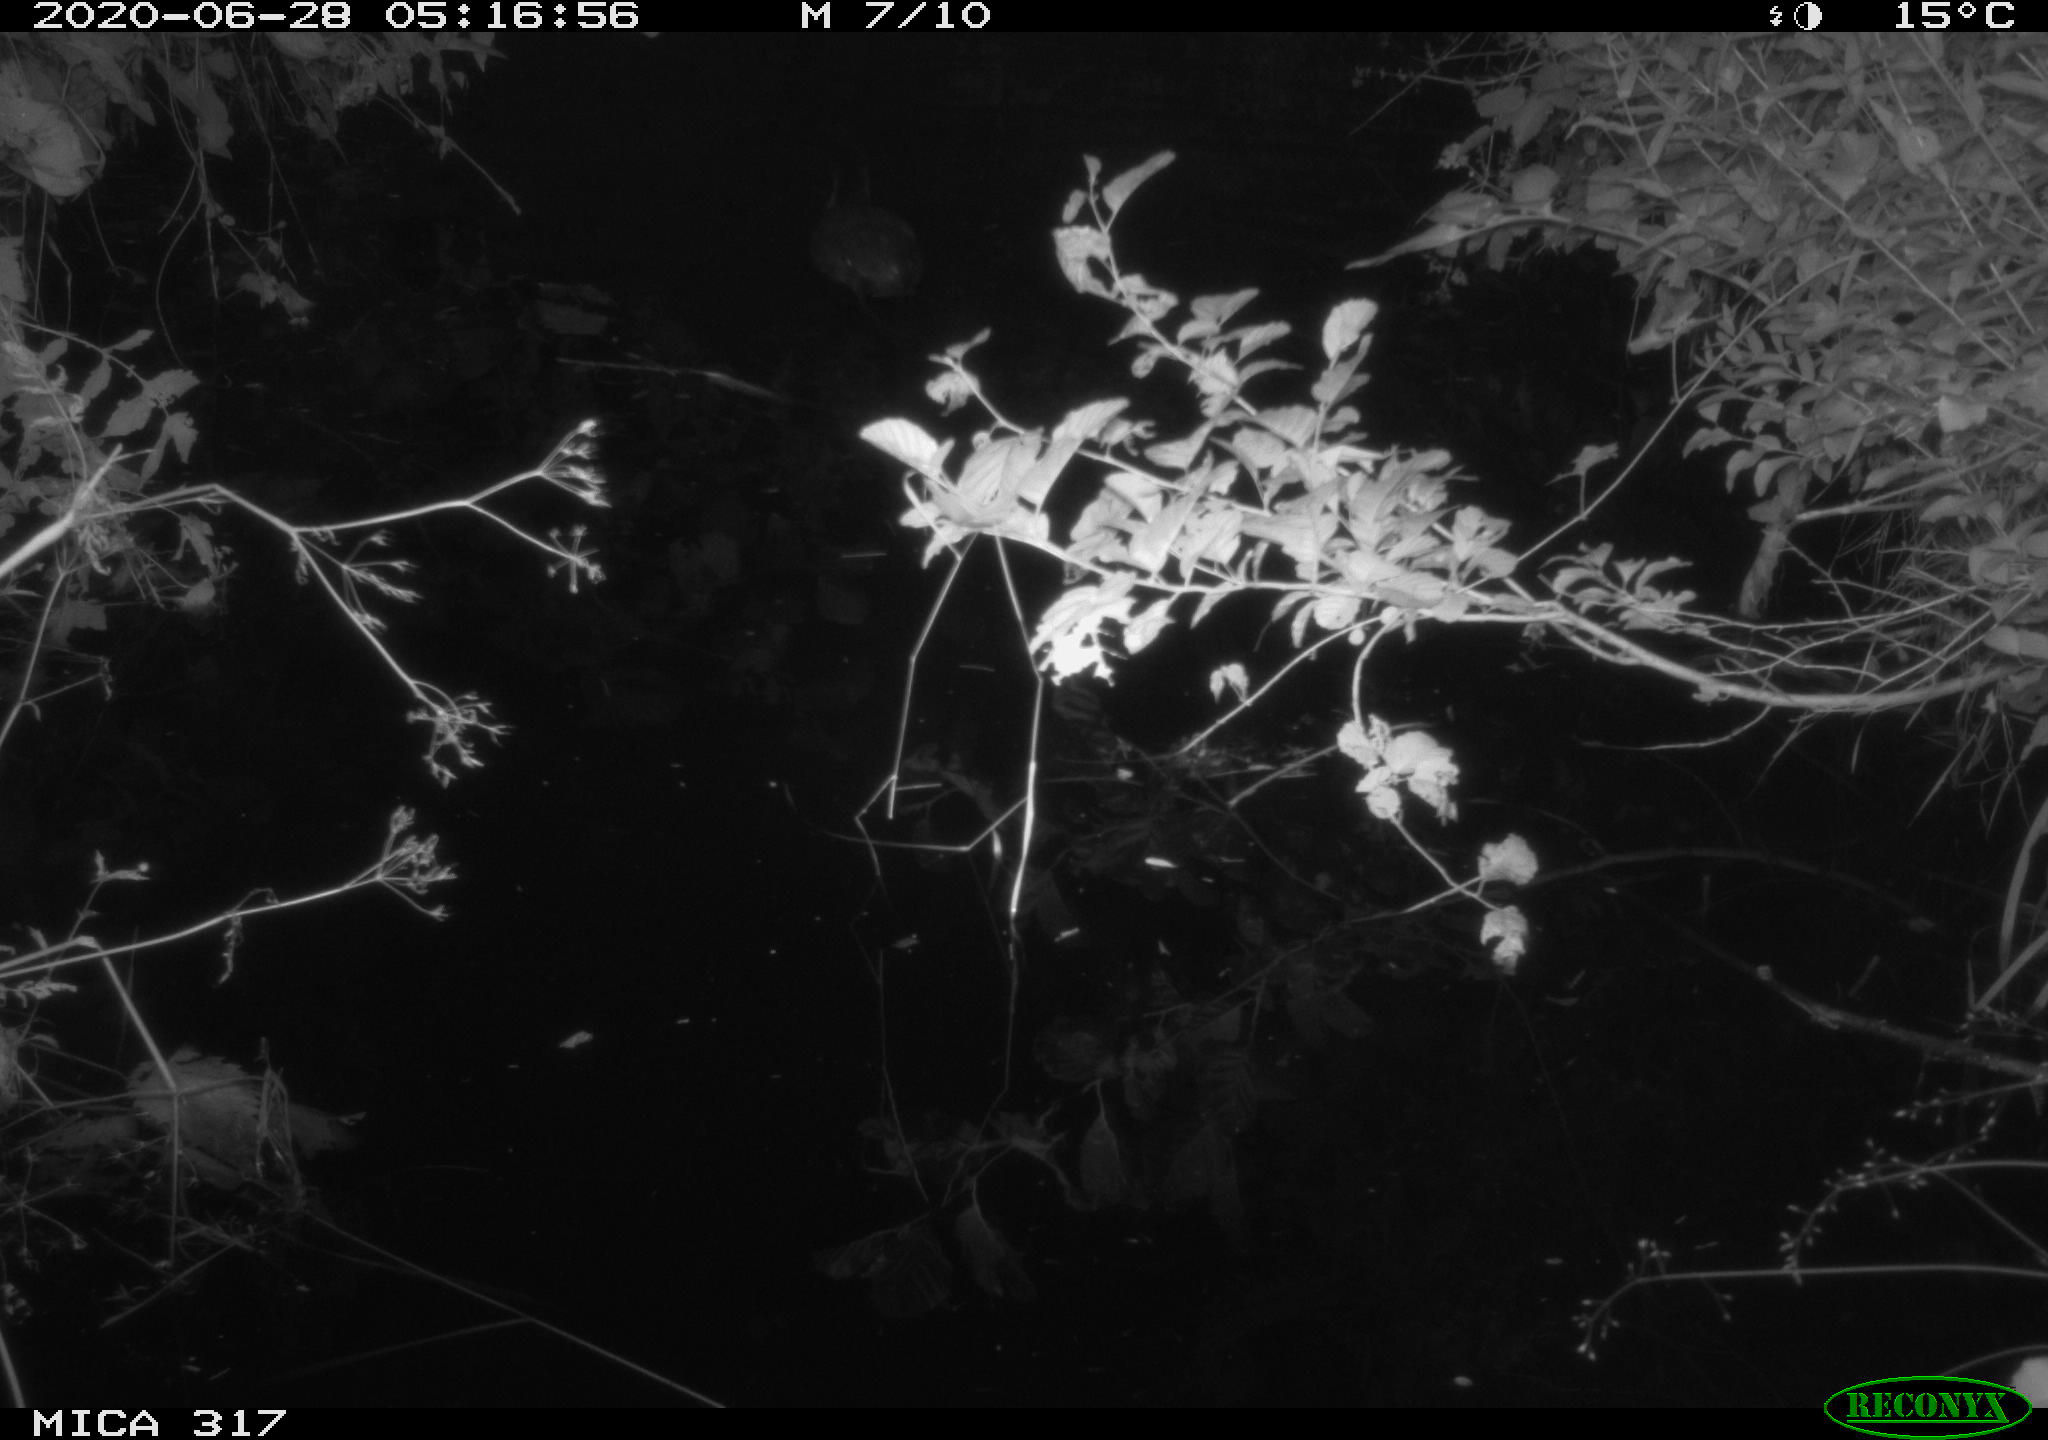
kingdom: Animalia
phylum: Chordata
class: Aves
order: Gruiformes
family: Rallidae
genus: Fulica
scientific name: Fulica atra
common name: Eurasian coot
